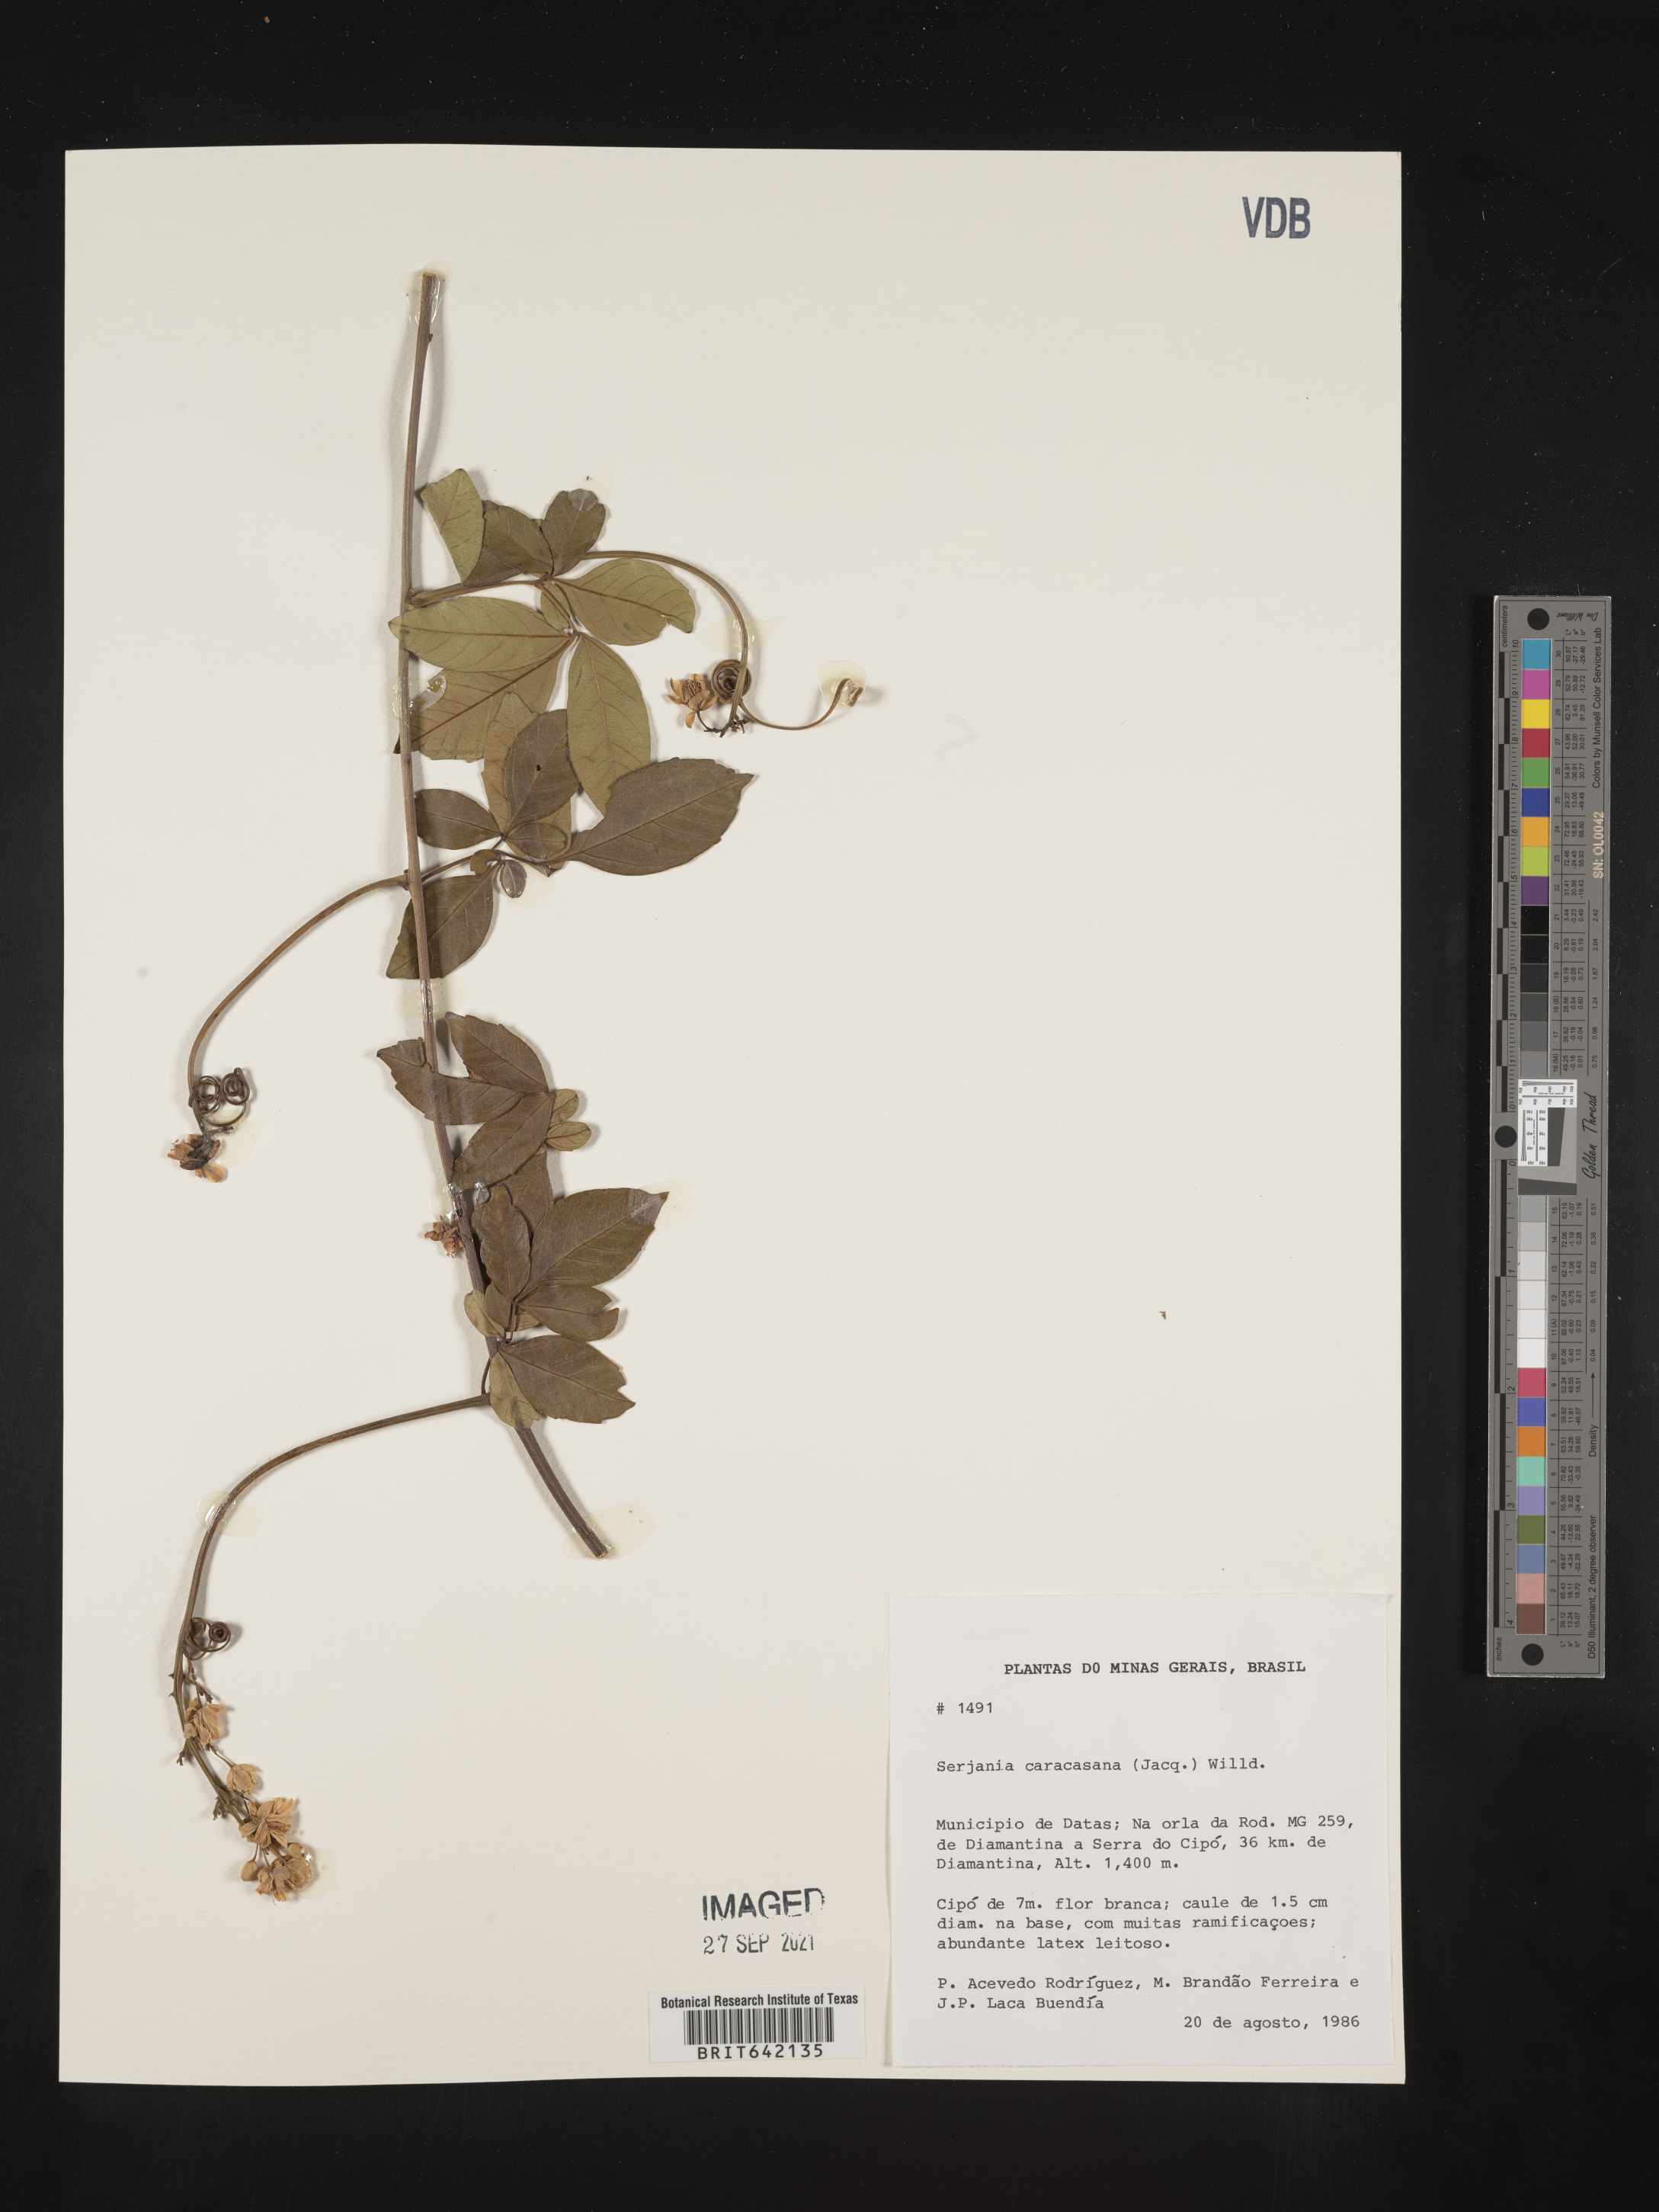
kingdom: Plantae
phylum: Tracheophyta
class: Magnoliopsida
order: Sapindales
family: Sapindaceae
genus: Serjania
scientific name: Serjania
